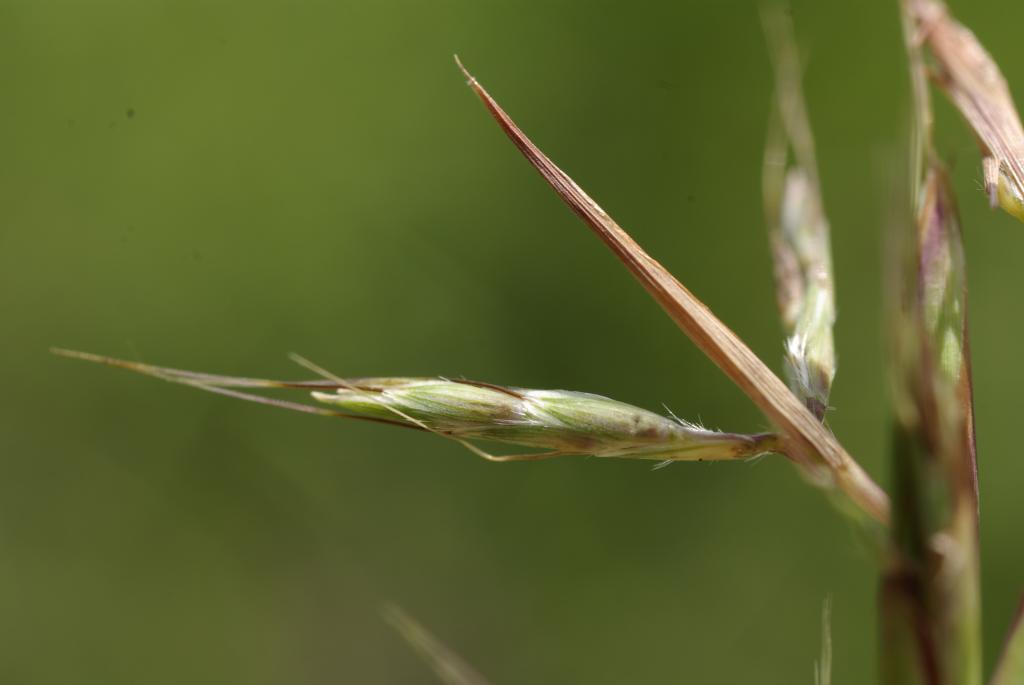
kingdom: Plantae
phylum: Tracheophyta
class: Liliopsida
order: Poales
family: Poaceae
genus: Cymbopogon
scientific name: Cymbopogon tortilis
